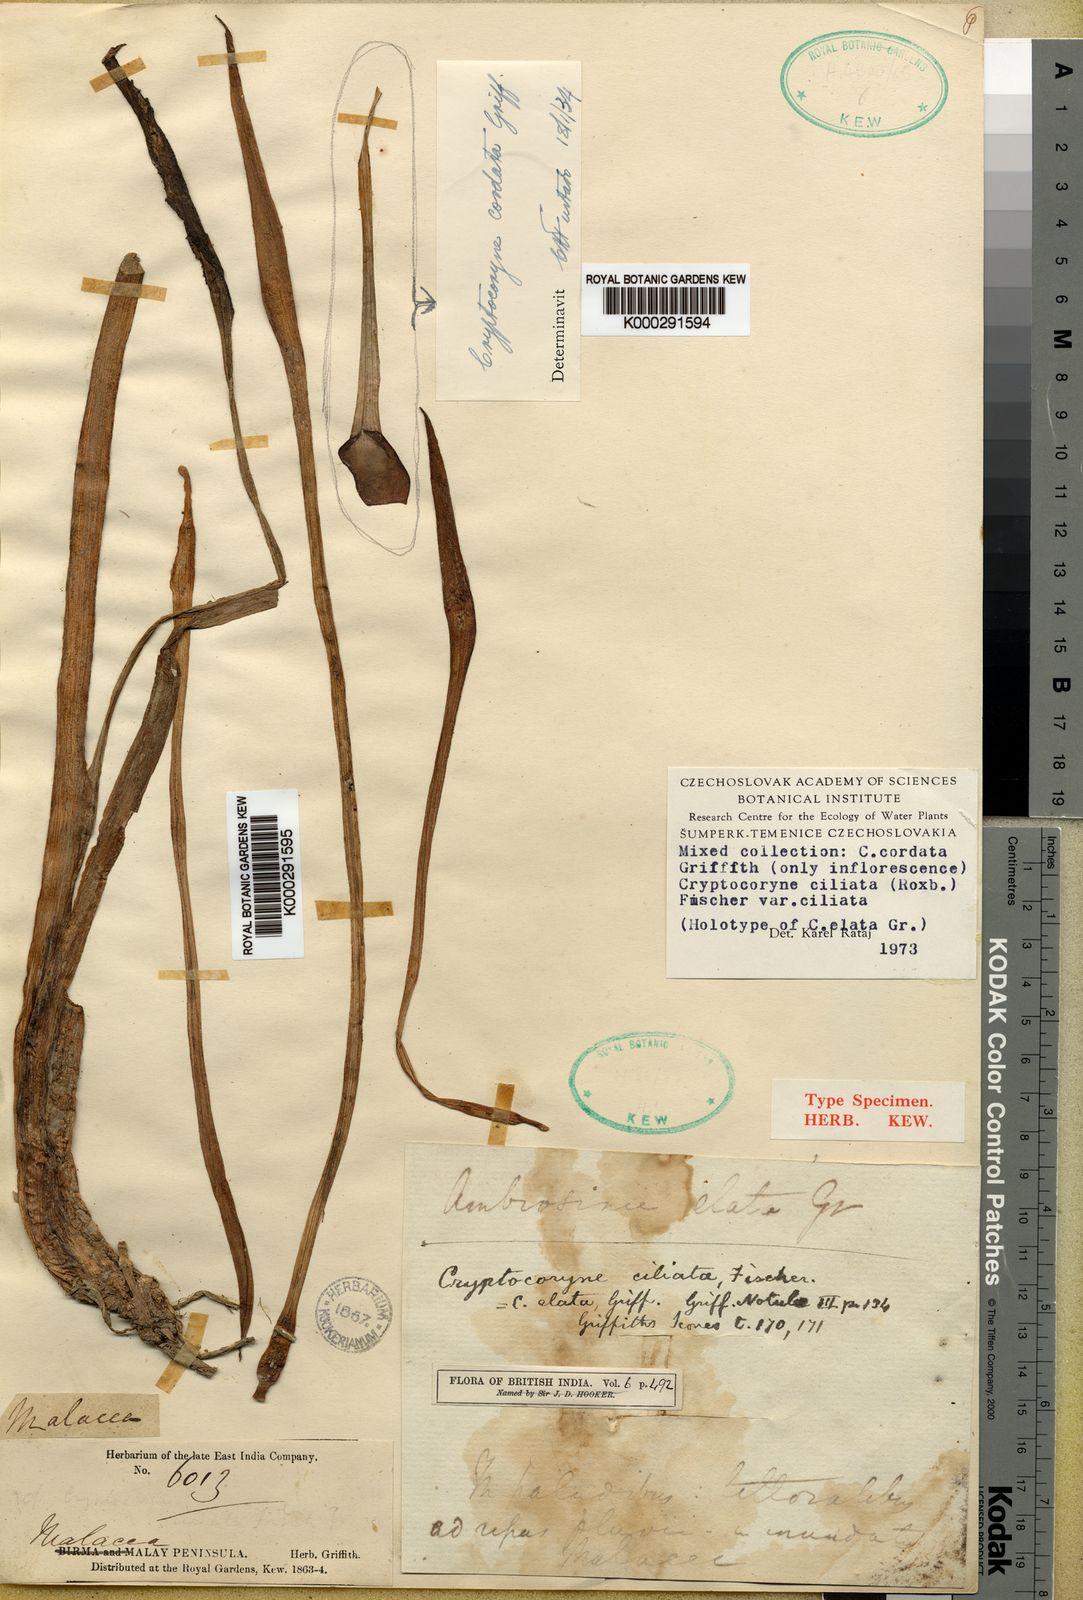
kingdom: Plantae
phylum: Tracheophyta
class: Liliopsida
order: Alismatales
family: Araceae
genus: Cryptocoryne
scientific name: Cryptocoryne cordata
